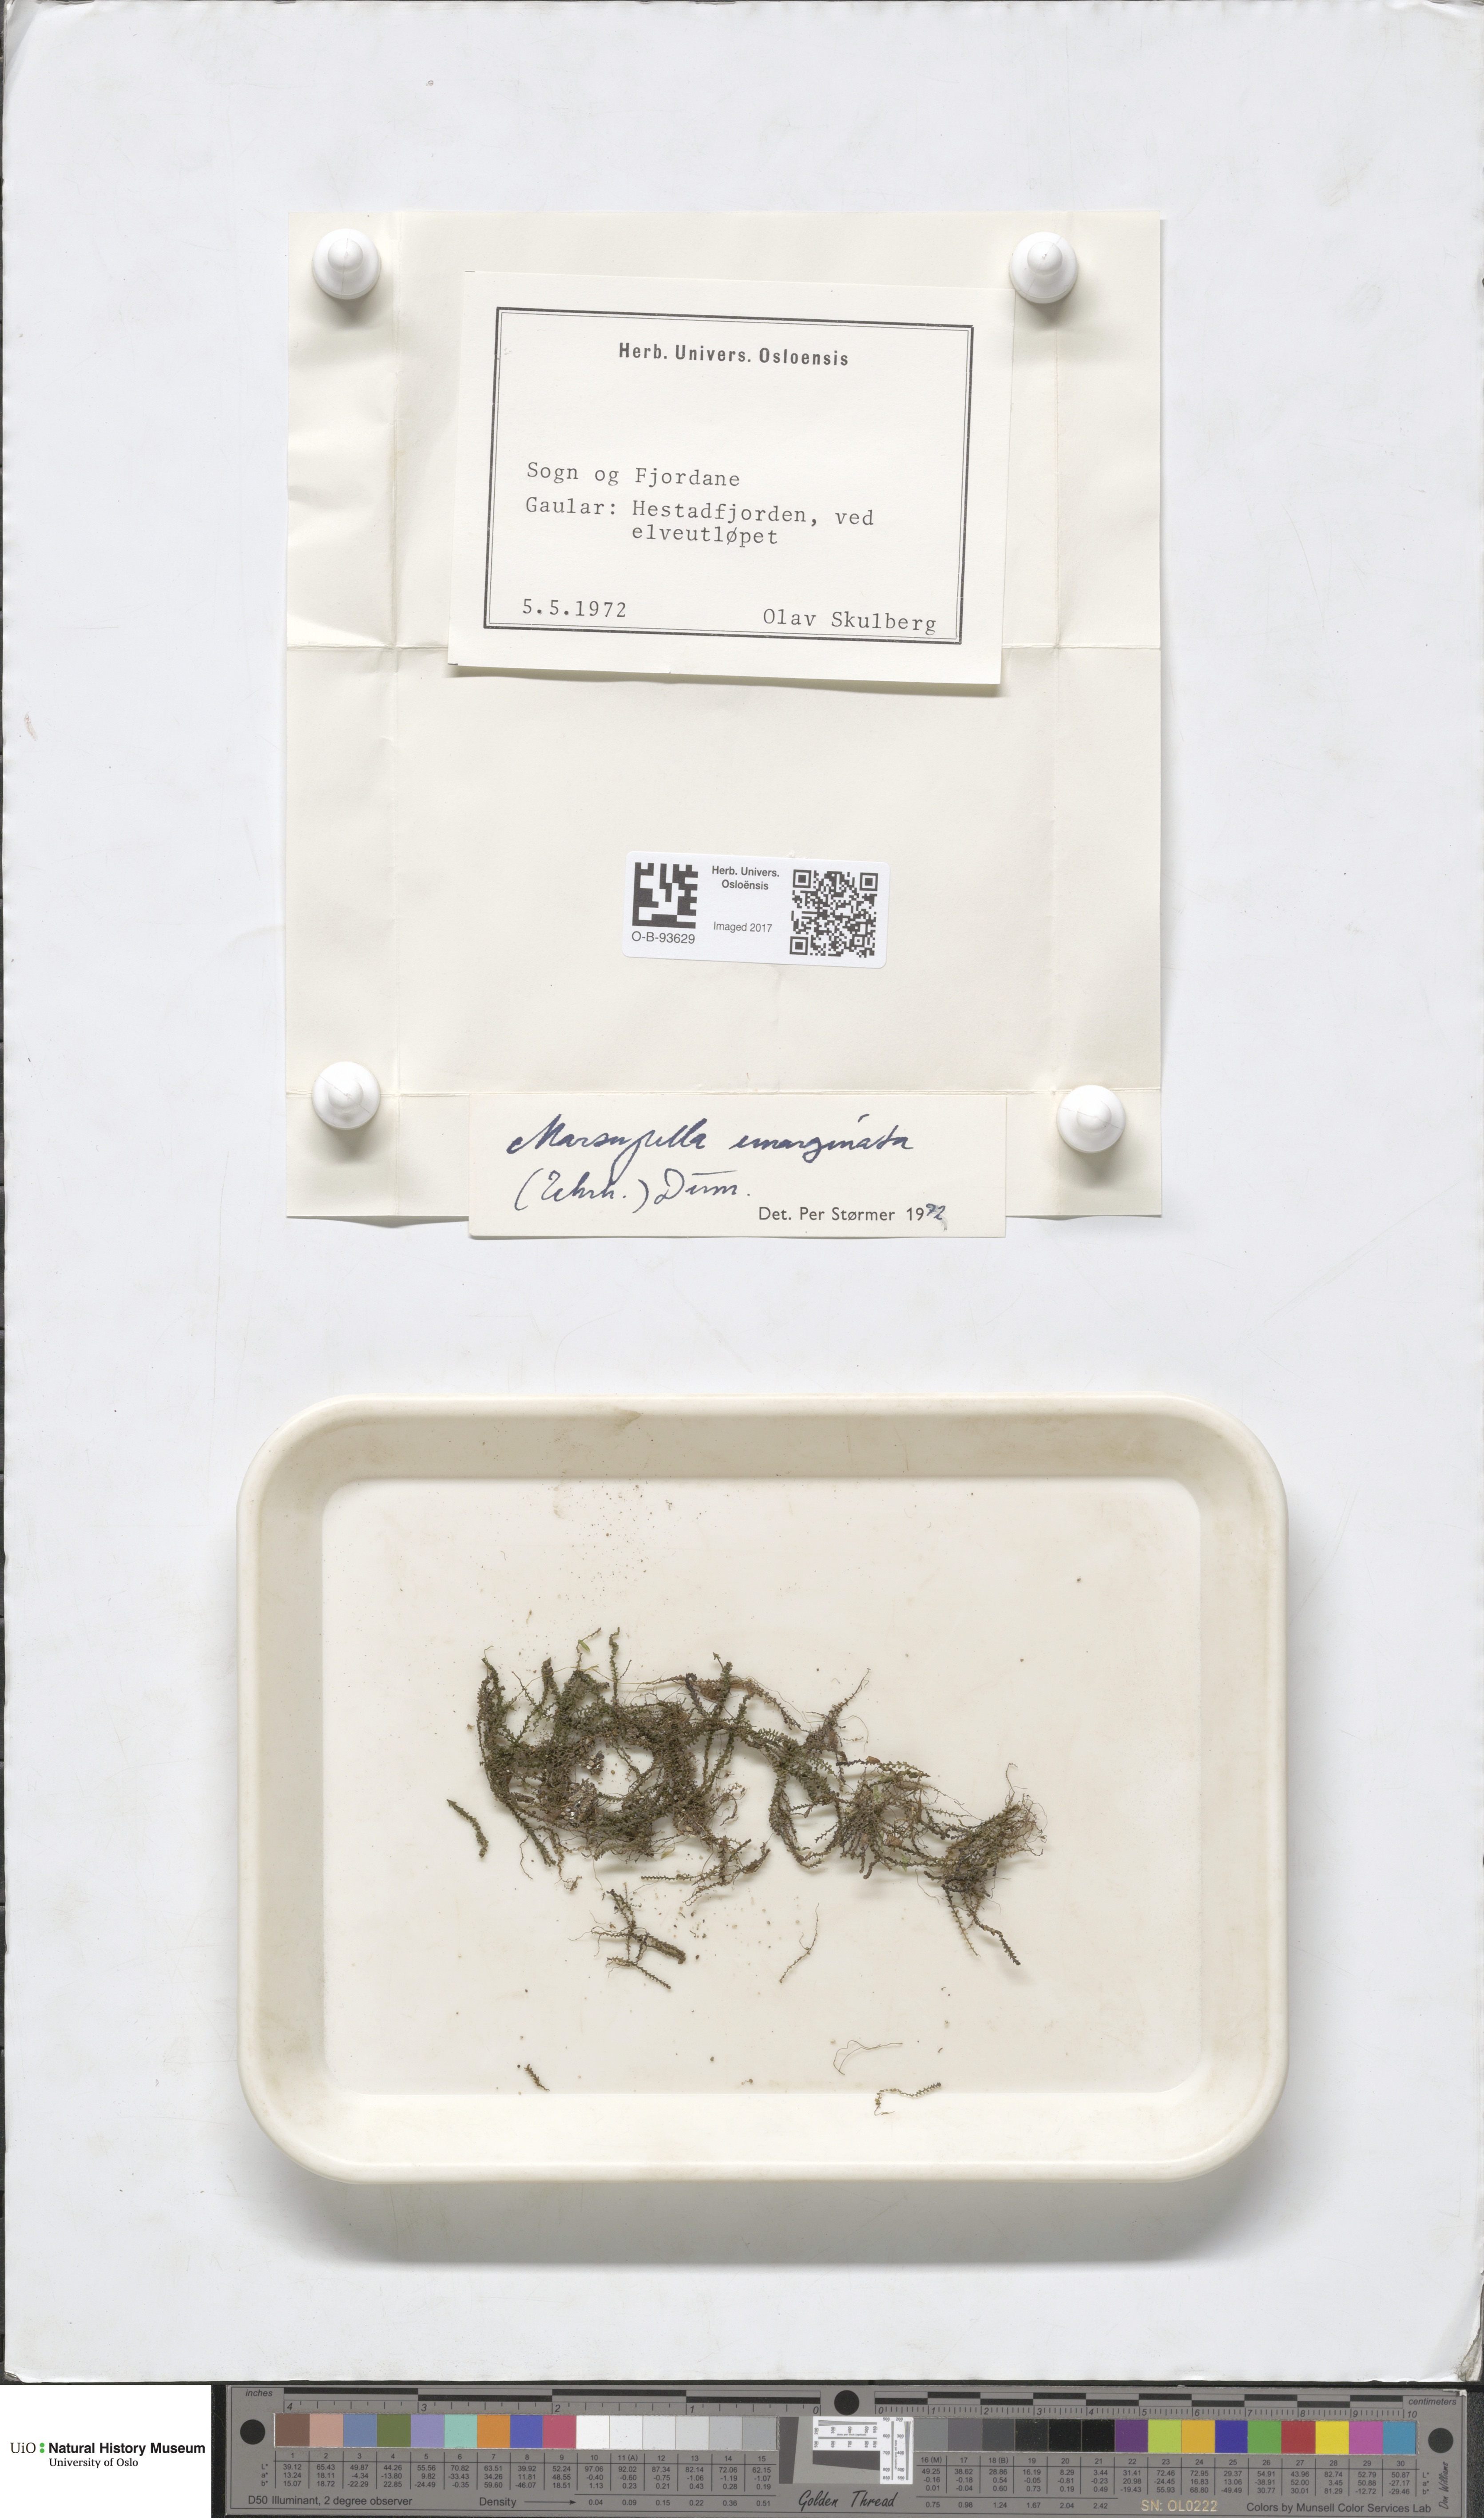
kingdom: Plantae
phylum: Marchantiophyta
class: Jungermanniopsida
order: Jungermanniales
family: Gymnomitriaceae
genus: Marsupella
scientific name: Marsupella emarginata
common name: Notched rustwort
